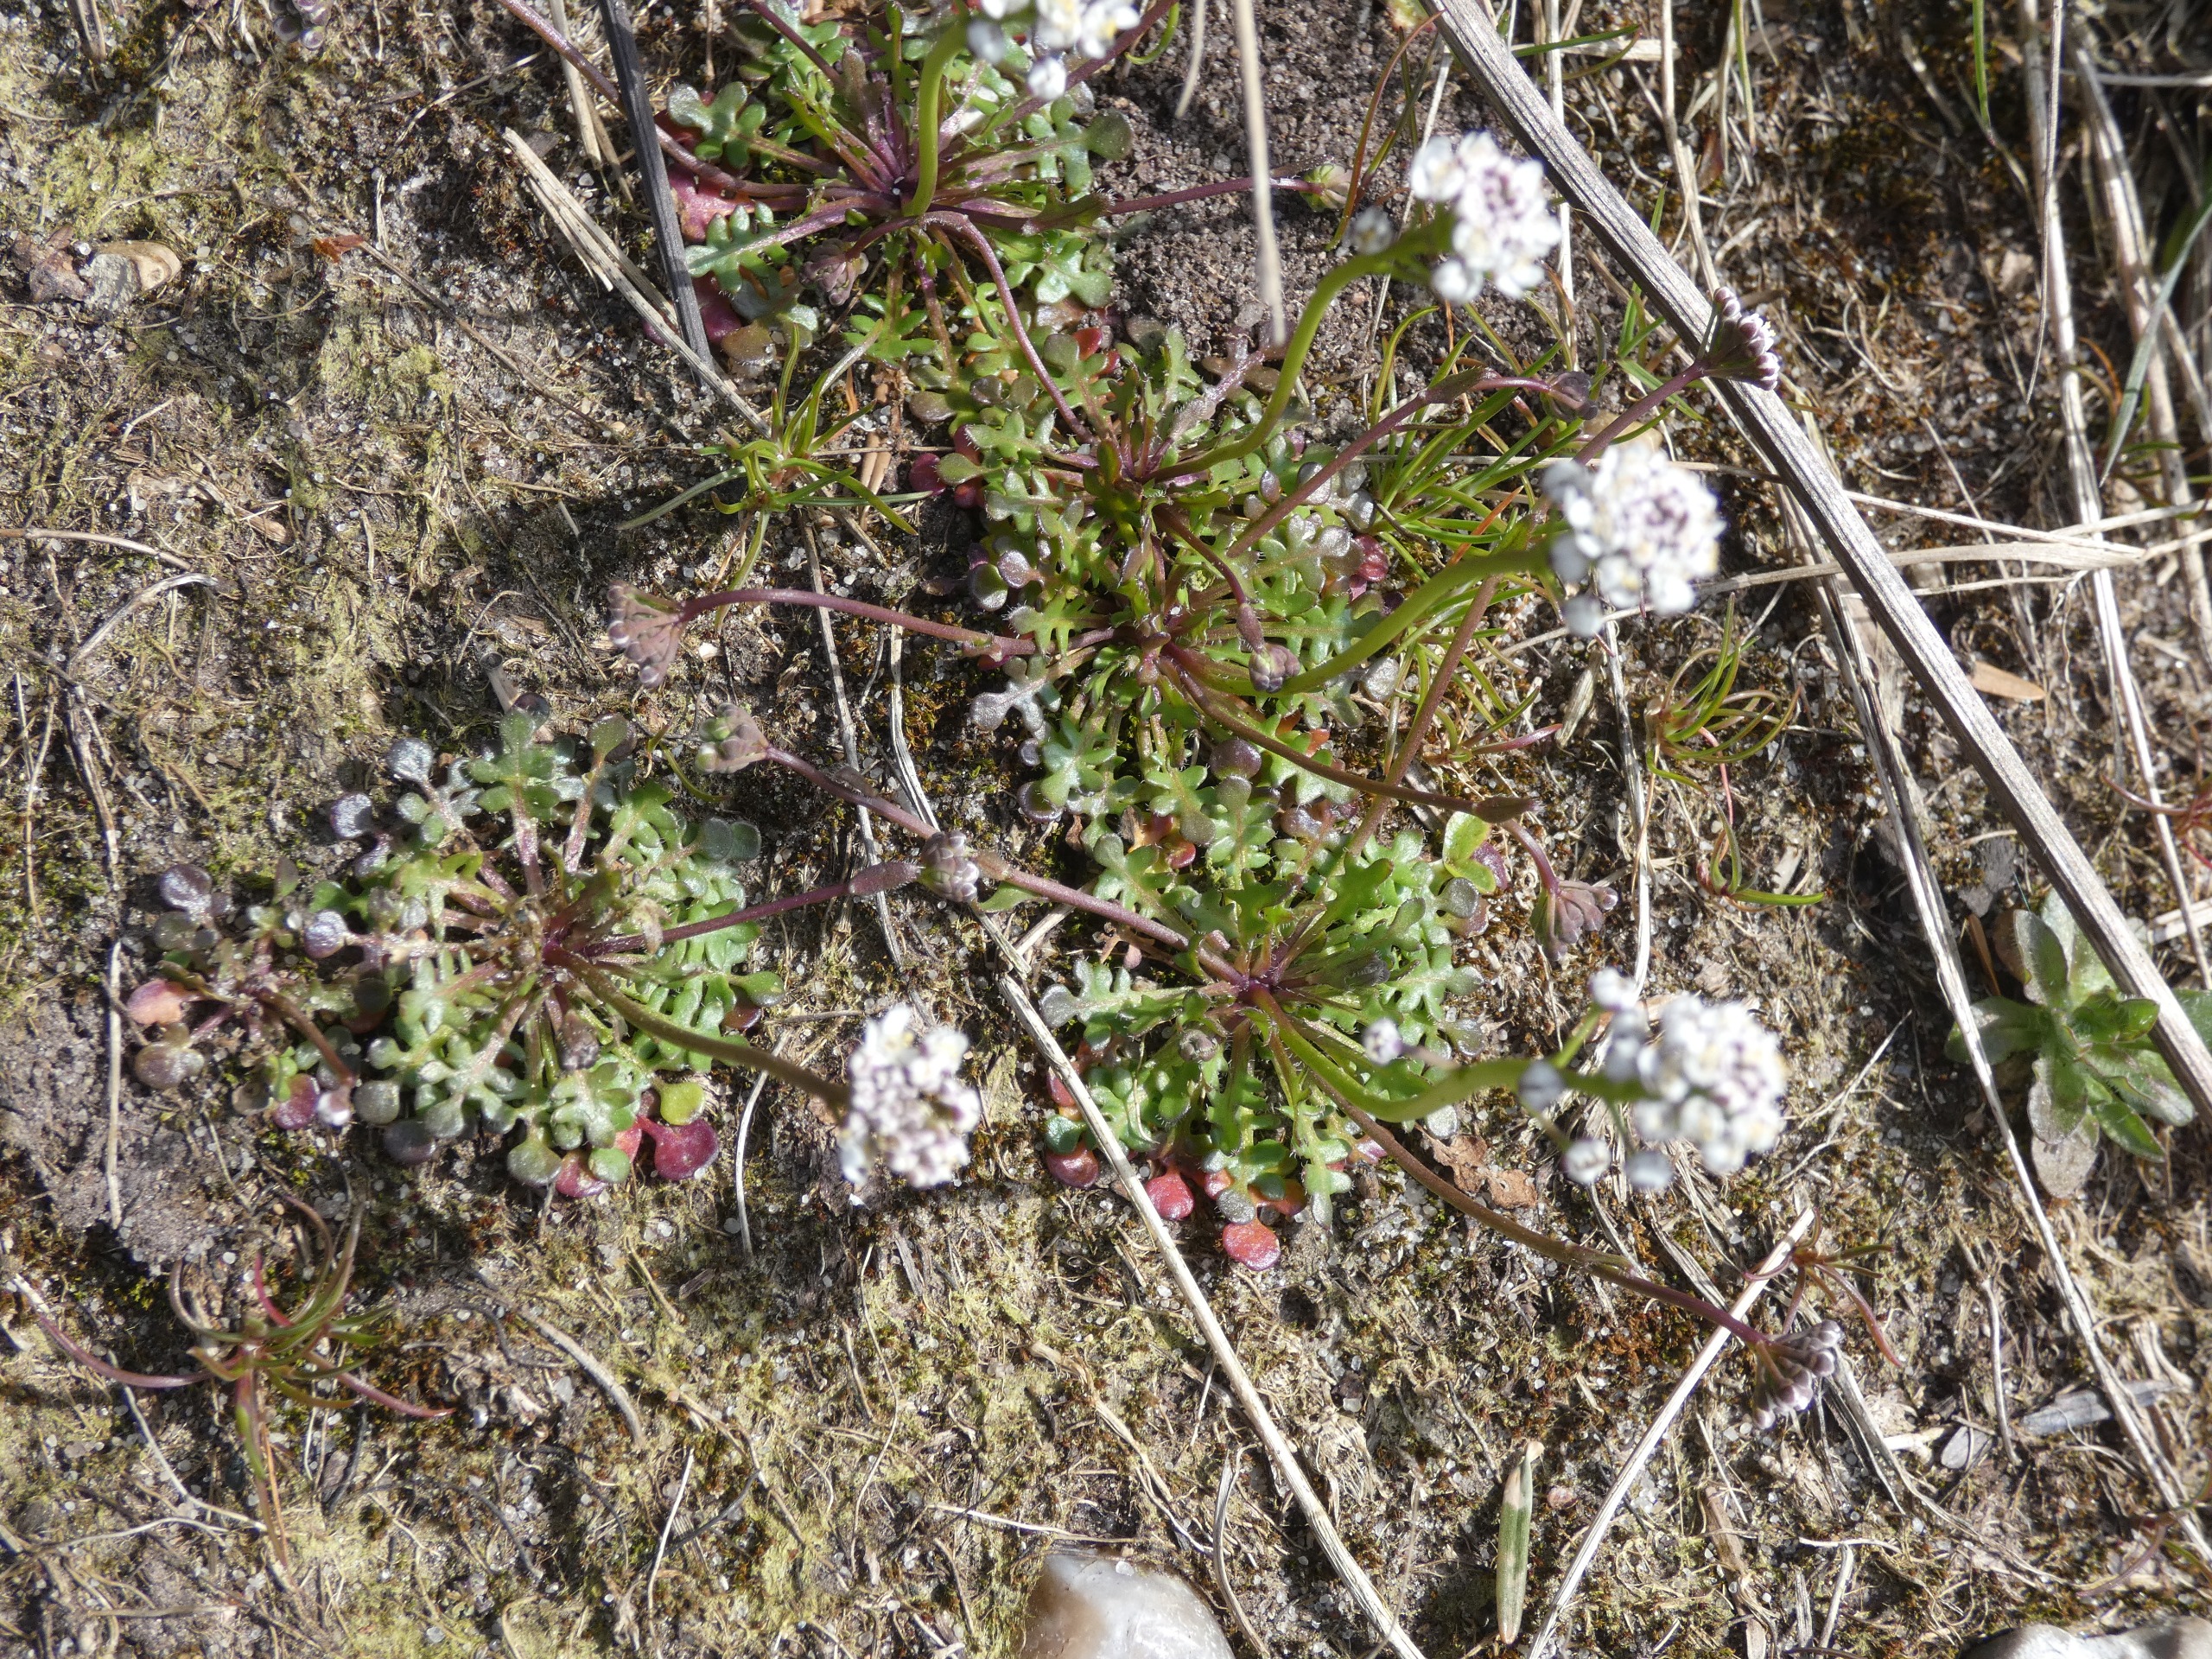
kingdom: Plantae
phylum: Tracheophyta
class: Magnoliopsida
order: Brassicales
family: Brassicaceae
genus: Teesdalia
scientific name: Teesdalia nudicaulis
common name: Flipkrave
